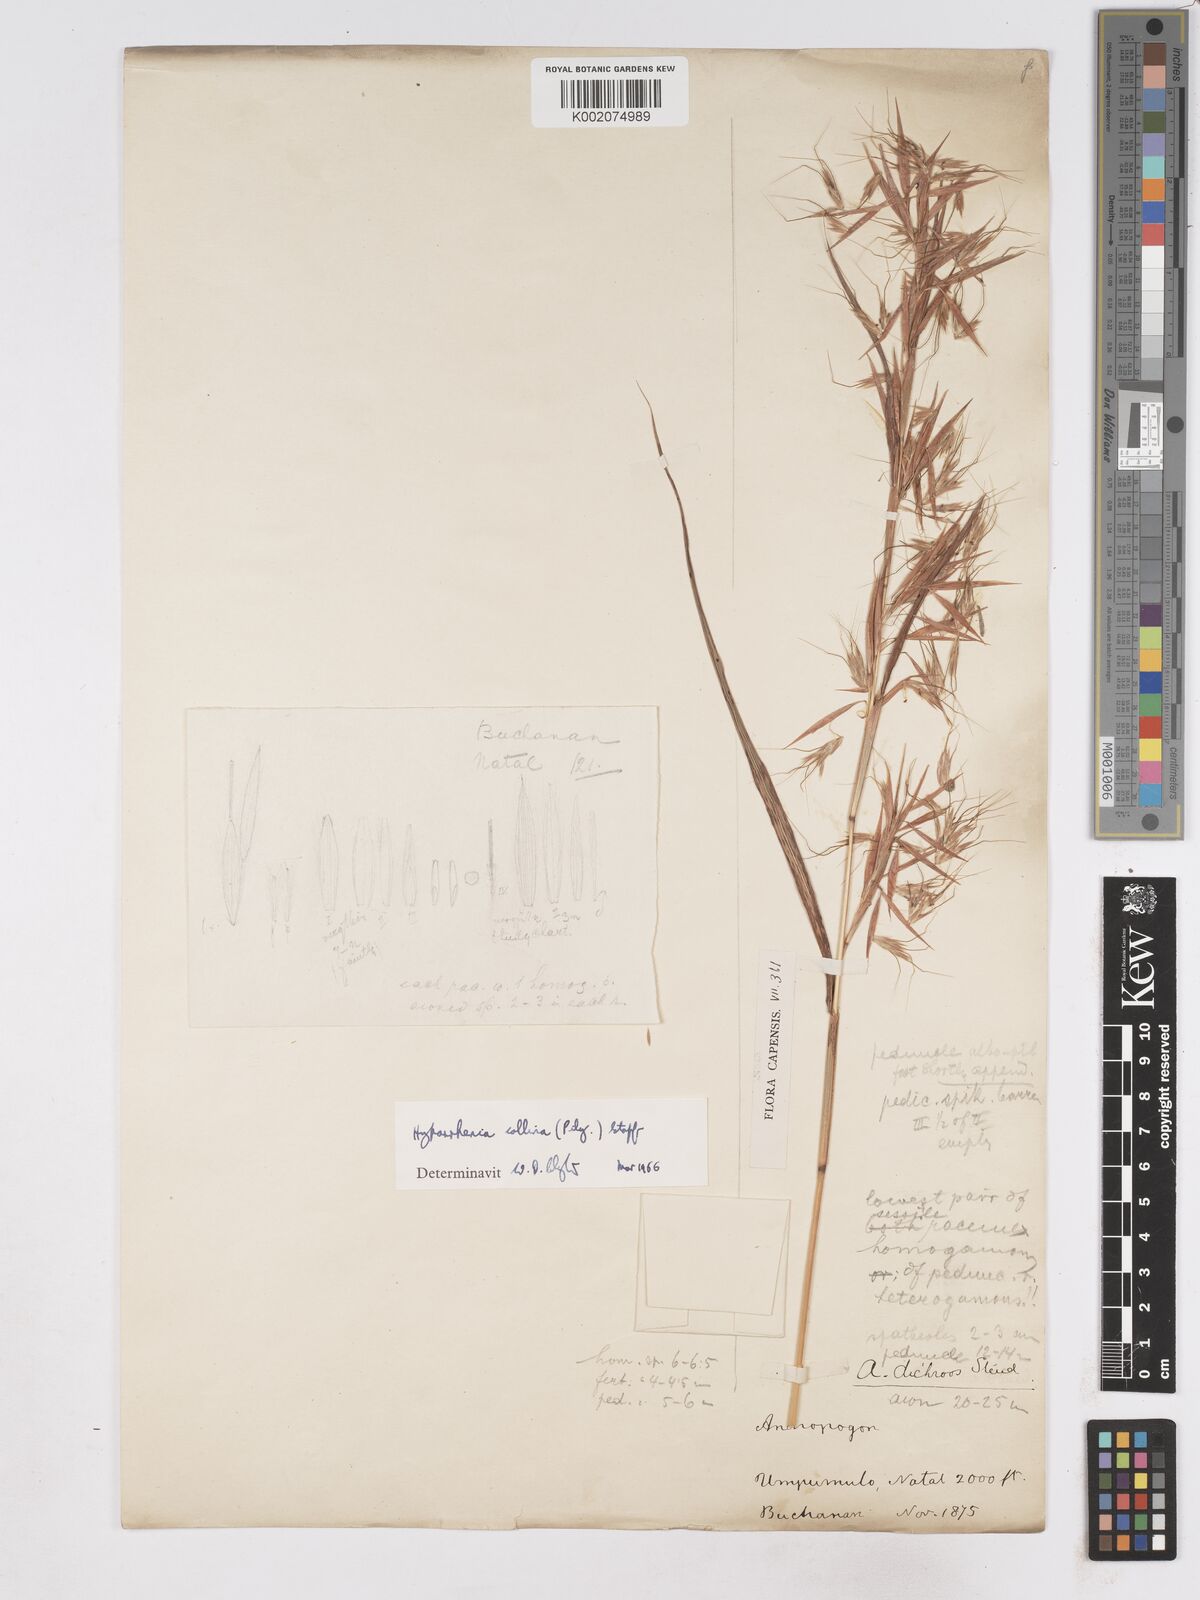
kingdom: Plantae
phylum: Tracheophyta
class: Liliopsida
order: Poales
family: Poaceae
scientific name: Poaceae
